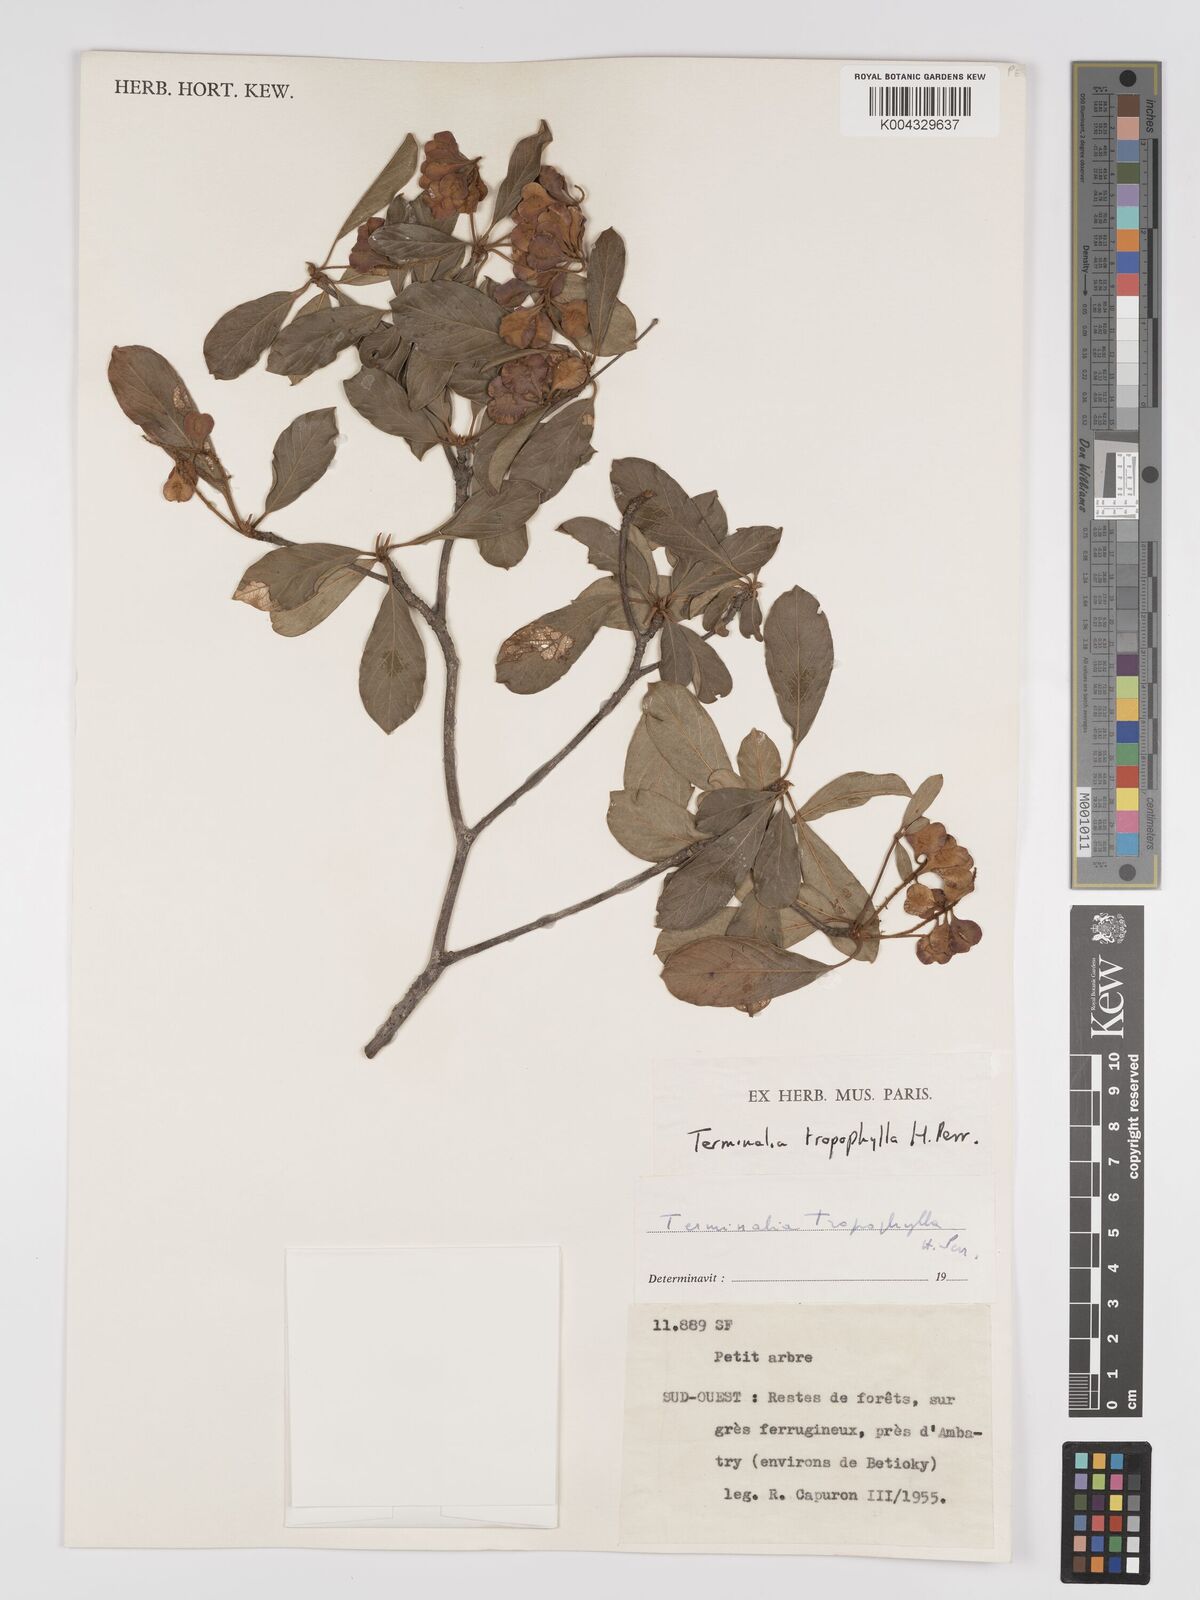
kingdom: Plantae
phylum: Tracheophyta
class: Magnoliopsida
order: Myrtales
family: Combretaceae
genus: Terminalia
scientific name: Terminalia tropophylla
